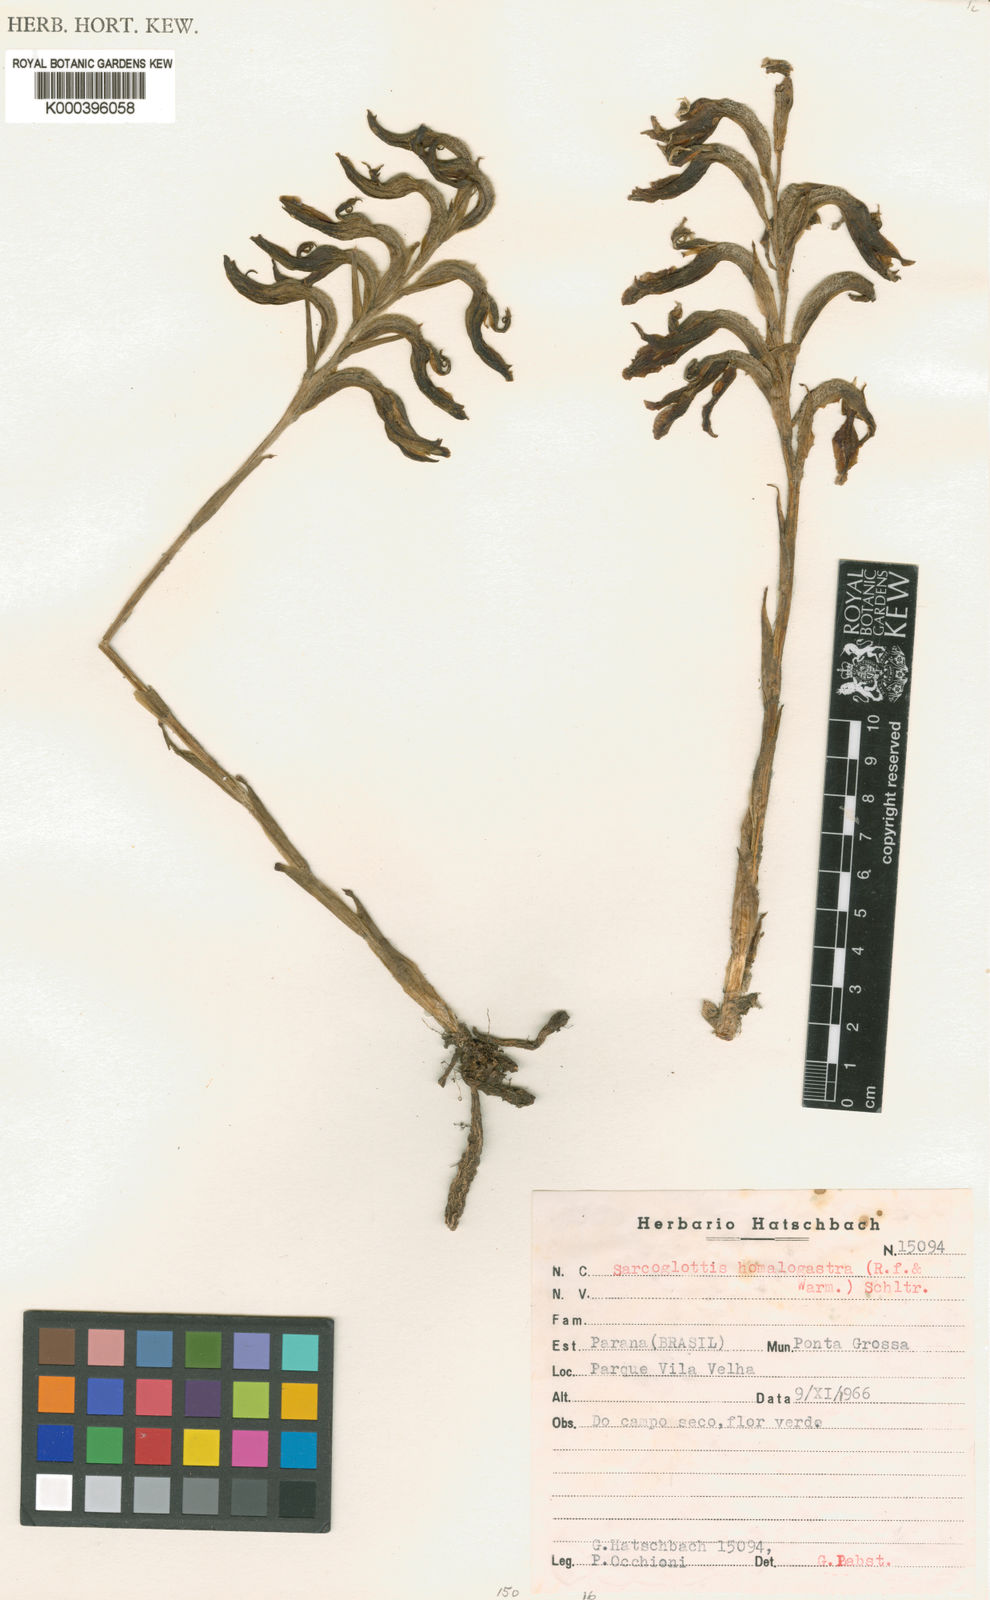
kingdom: Plantae
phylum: Tracheophyta
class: Liliopsida
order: Asparagales
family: Orchidaceae
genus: Sarcoglottis
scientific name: Sarcoglottis homalogastra
